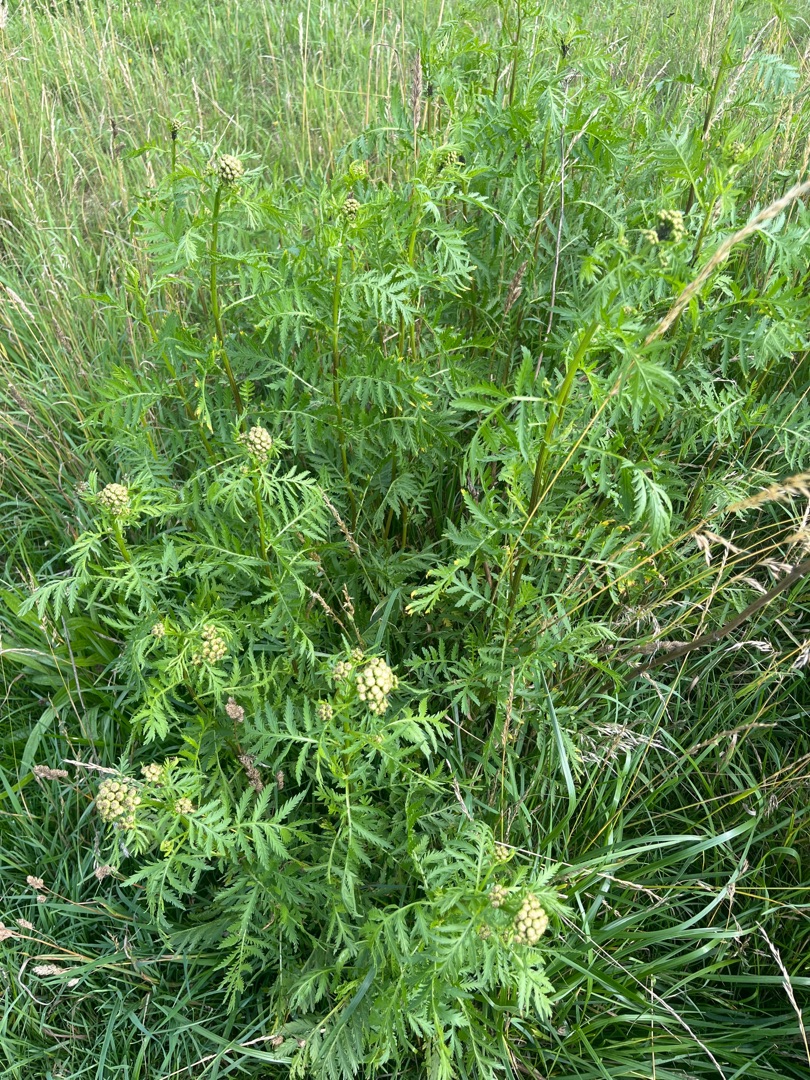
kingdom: Plantae
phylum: Tracheophyta
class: Magnoliopsida
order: Asterales
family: Asteraceae
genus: Tanacetum
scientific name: Tanacetum vulgare
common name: Rejnfan
